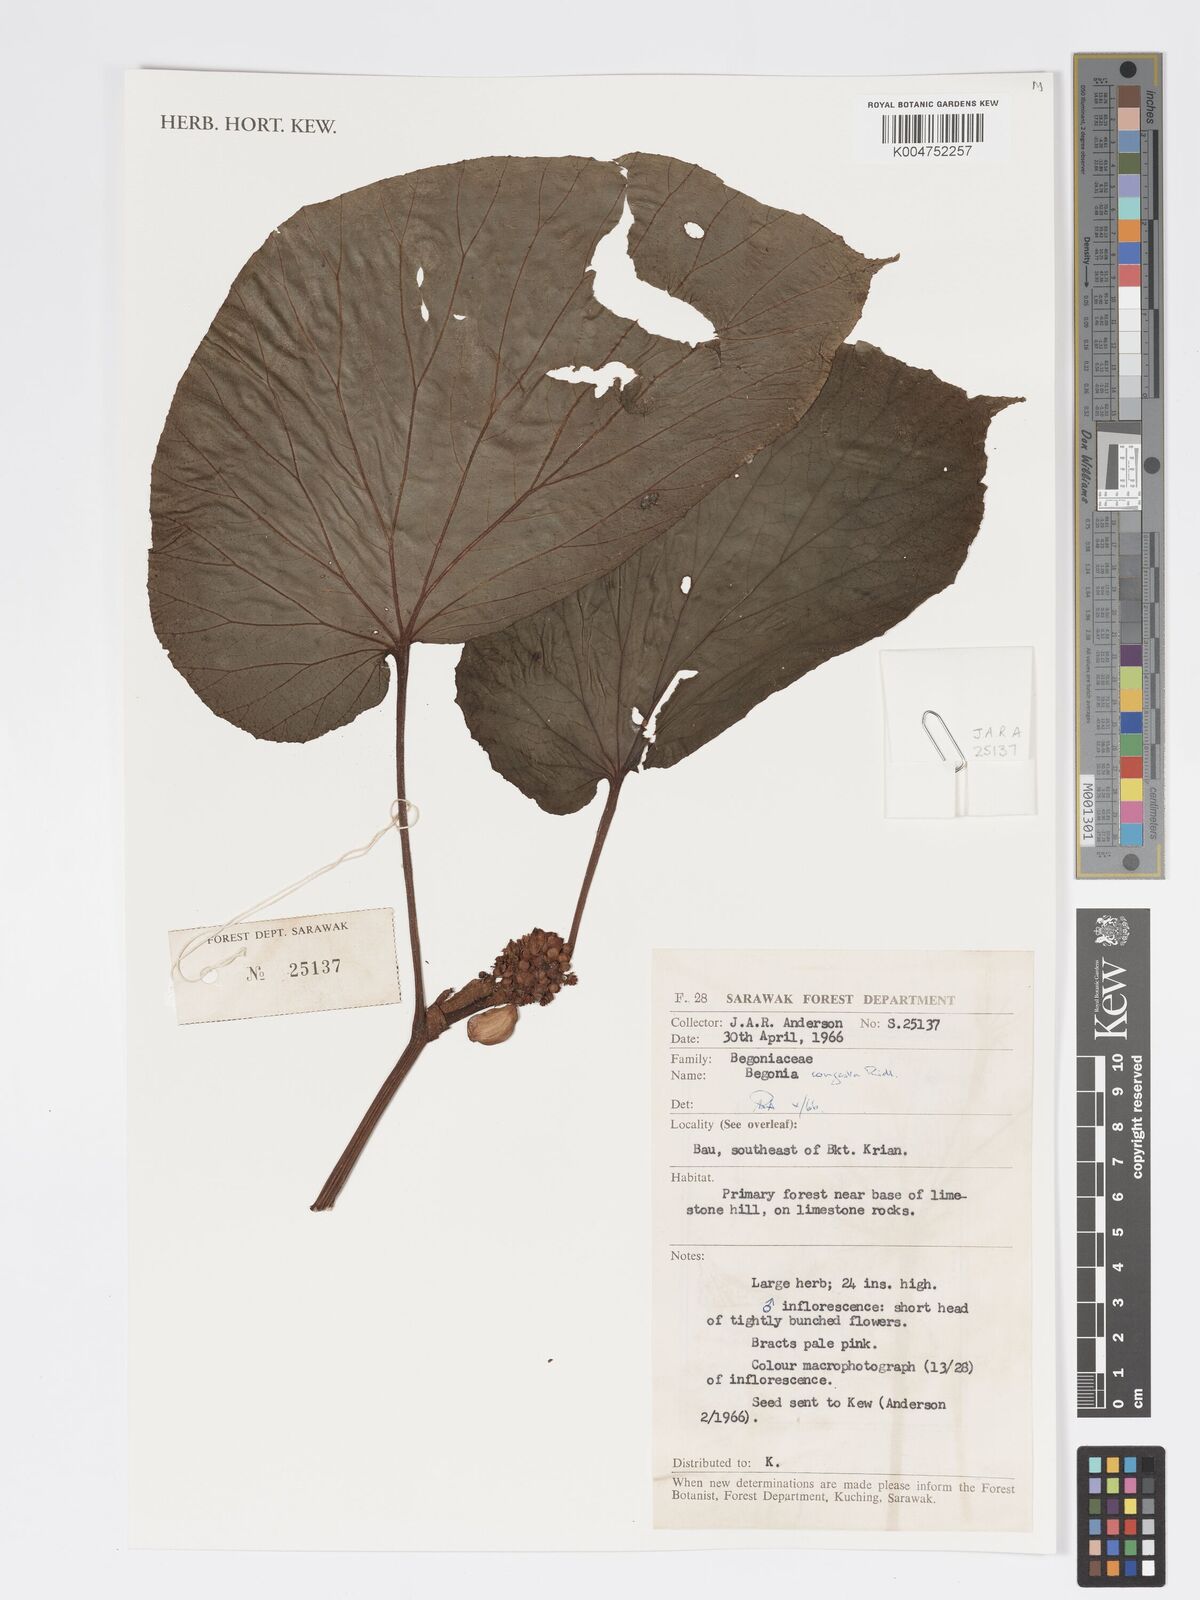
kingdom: Plantae
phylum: Tracheophyta
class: Magnoliopsida
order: Cucurbitales
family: Begoniaceae
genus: Begonia
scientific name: Begonia congesta
